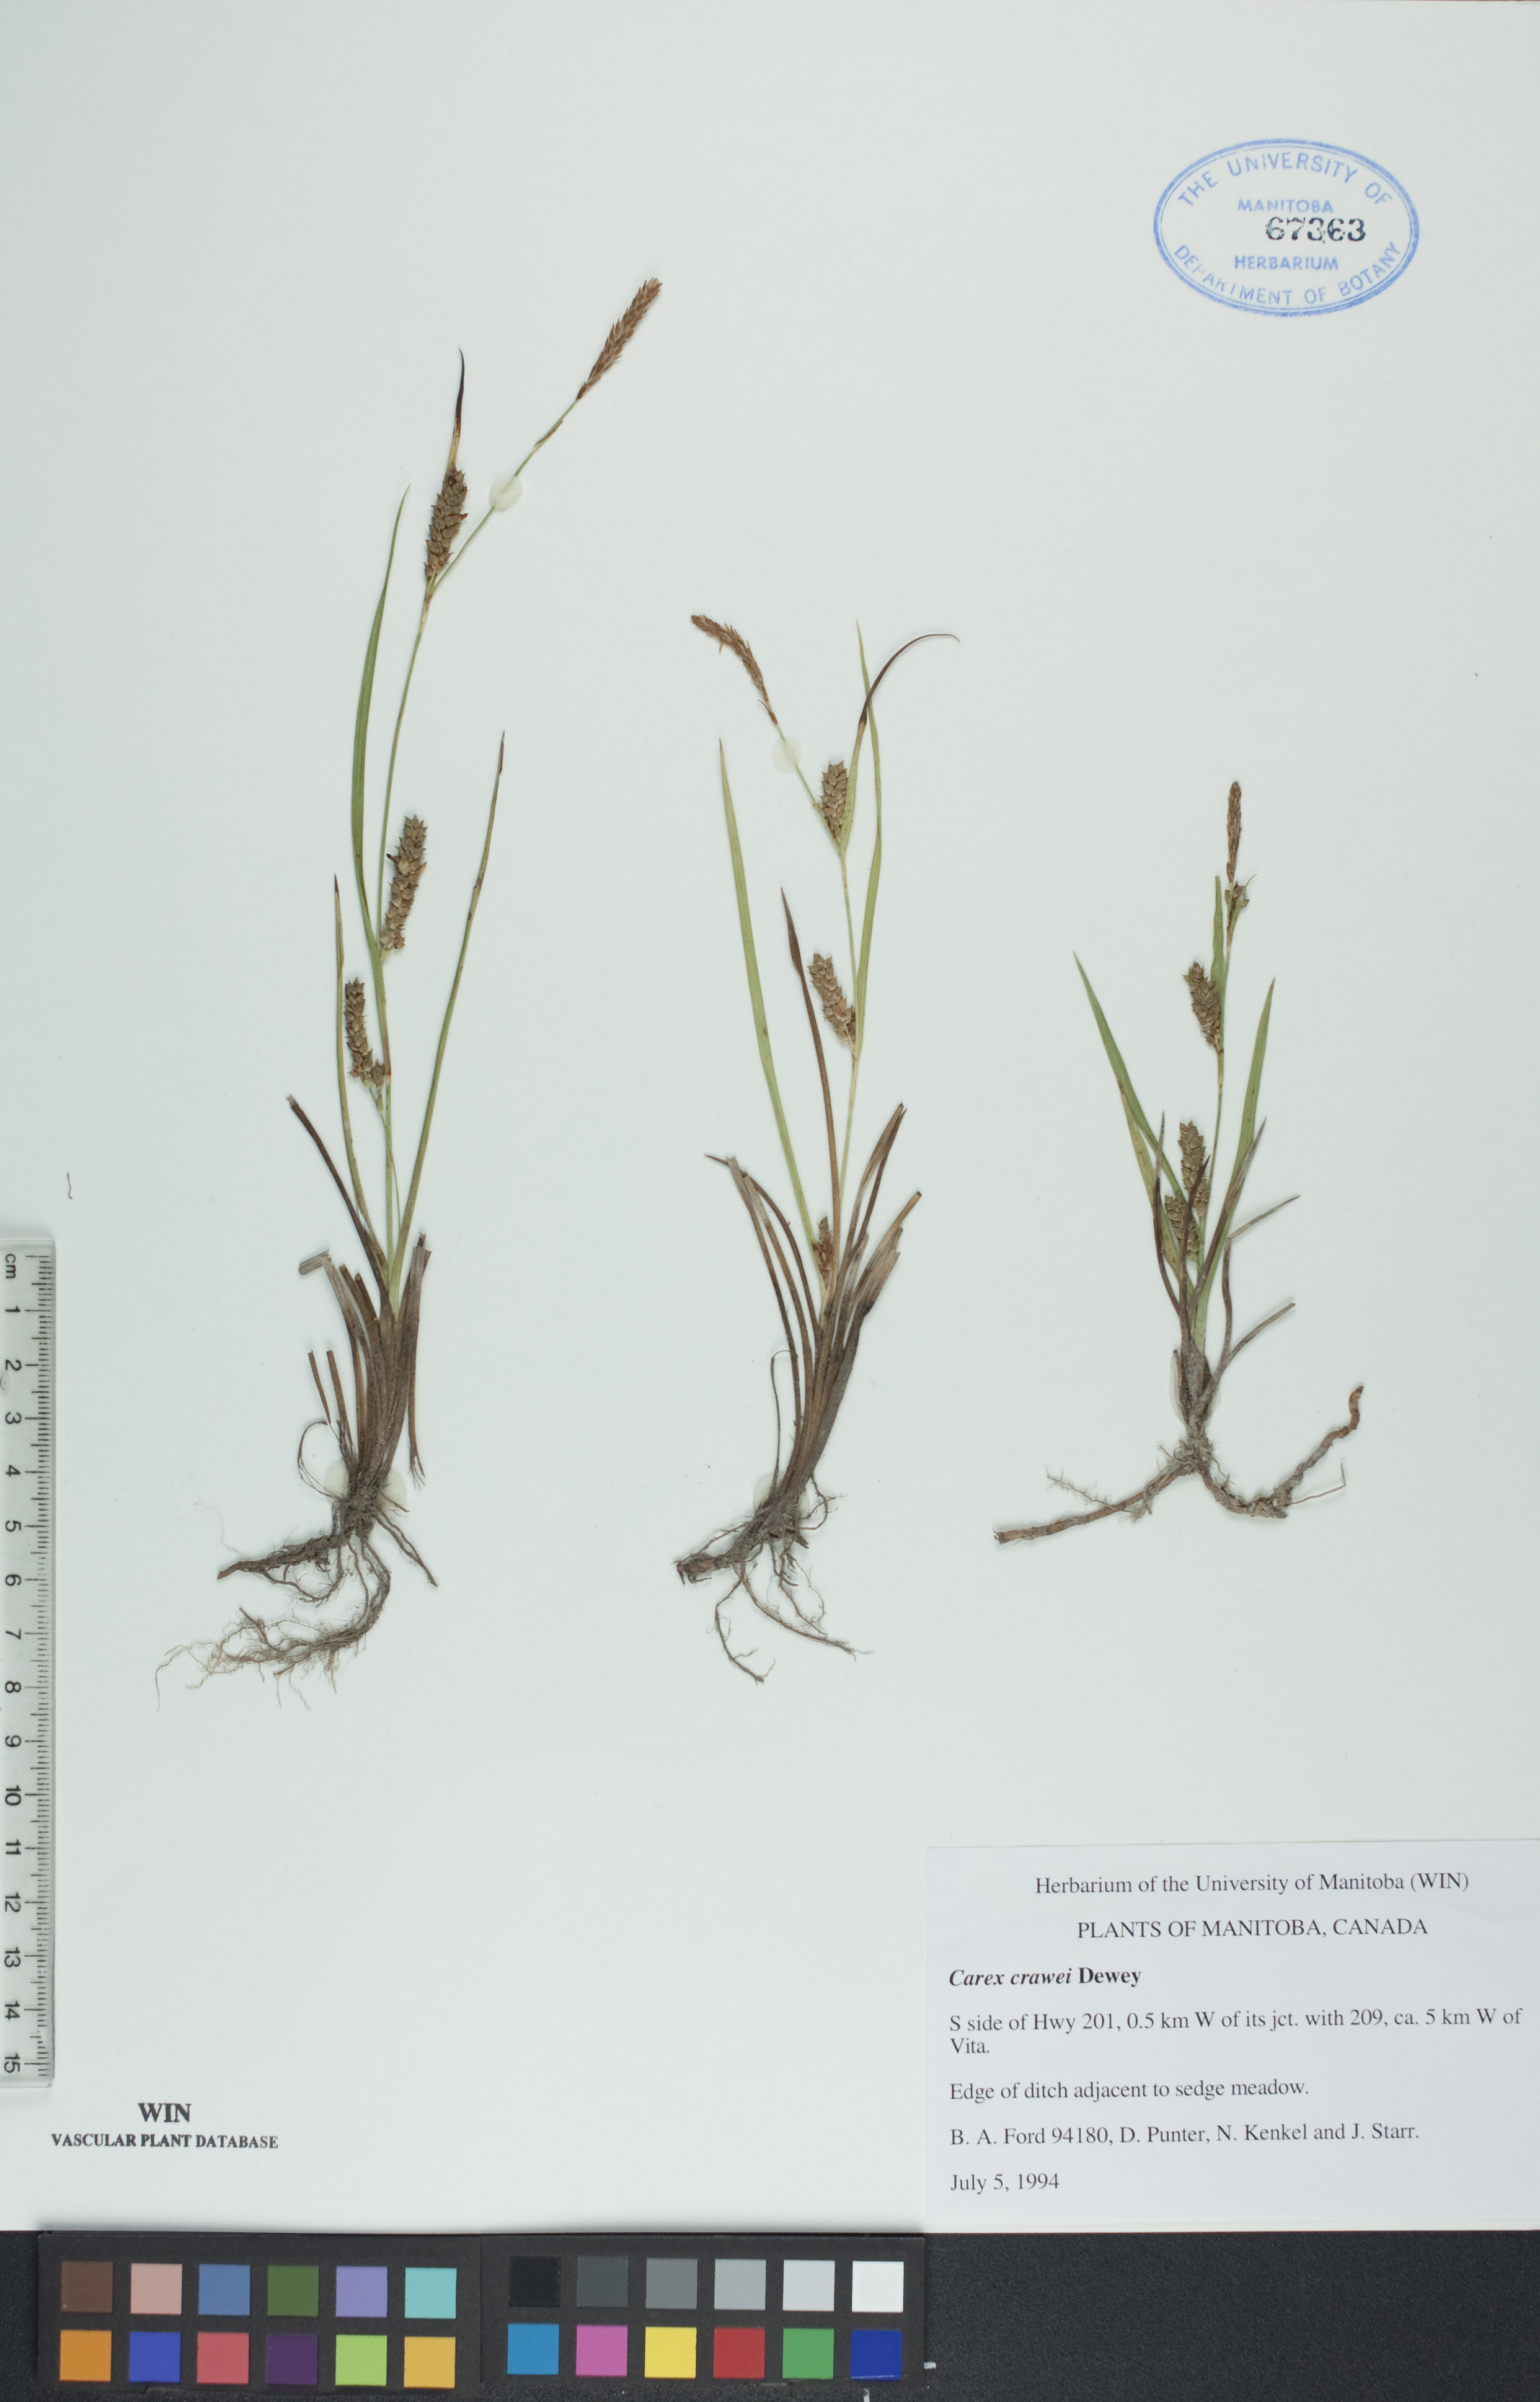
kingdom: Plantae
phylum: Tracheophyta
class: Liliopsida
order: Poales
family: Cyperaceae
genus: Carex
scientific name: Carex crawei
